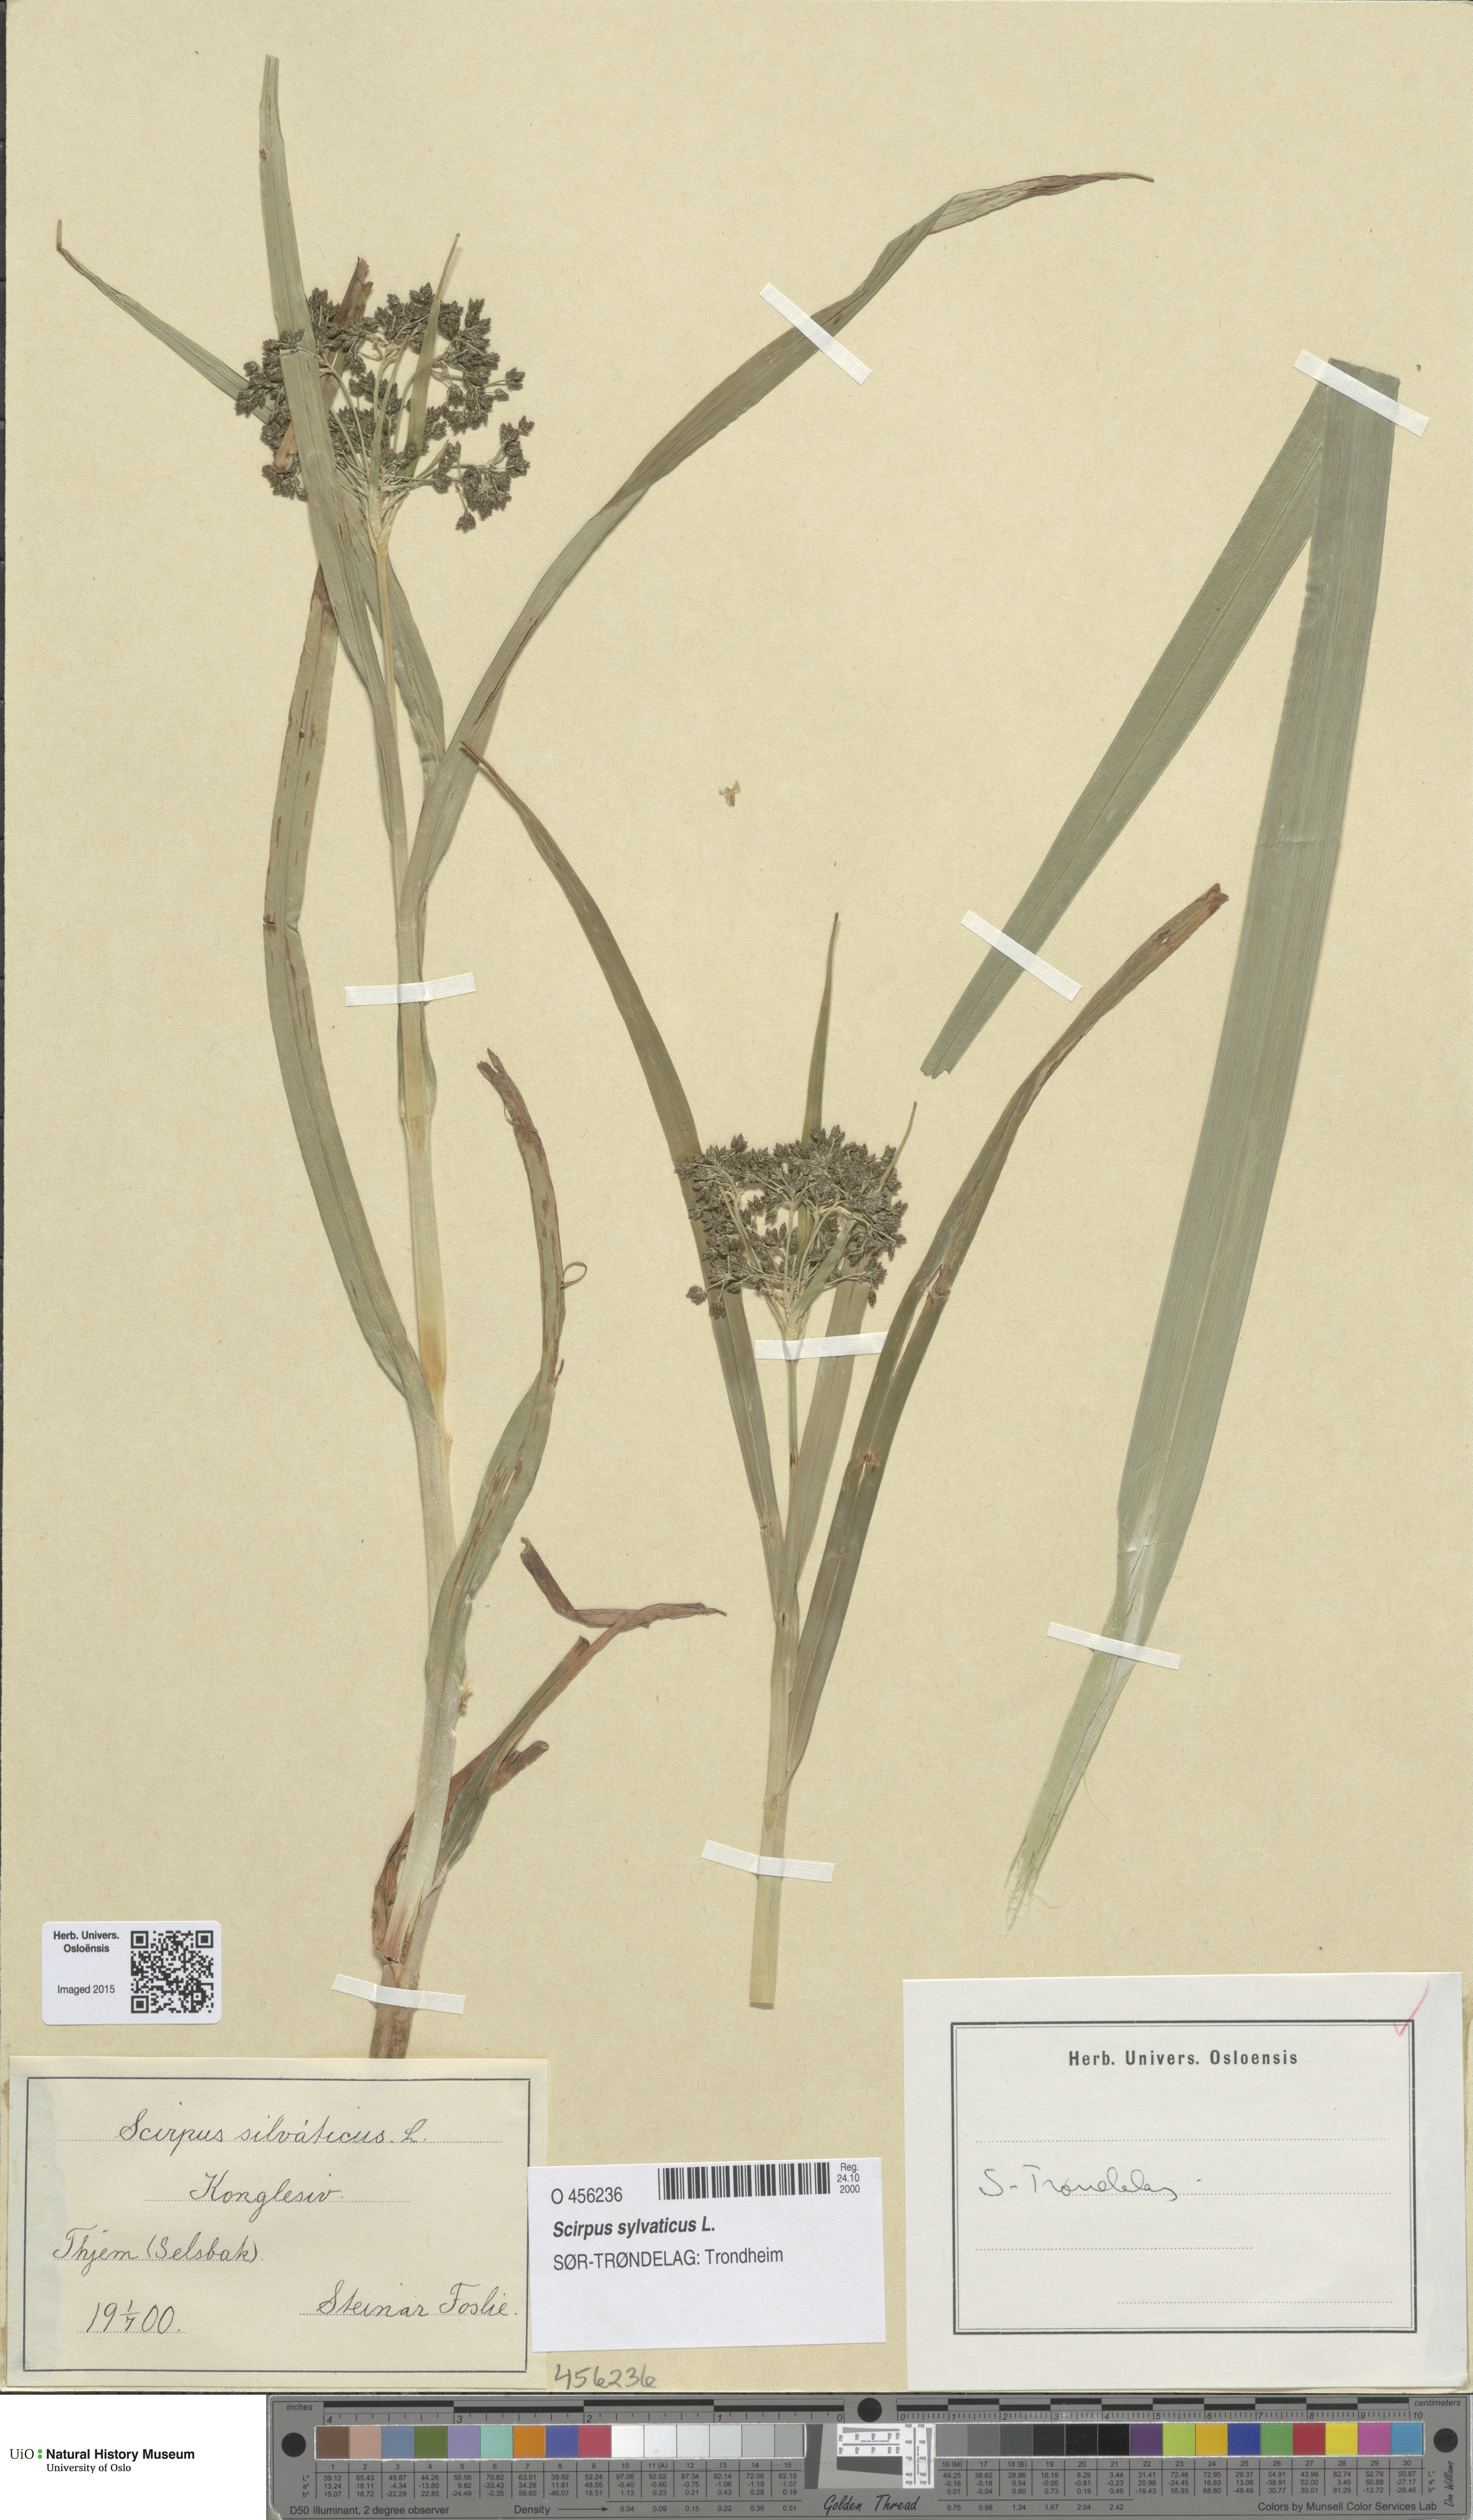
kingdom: Plantae
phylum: Tracheophyta
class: Liliopsida
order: Poales
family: Cyperaceae
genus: Scirpus
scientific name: Scirpus sylvaticus
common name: Wood club-rush
